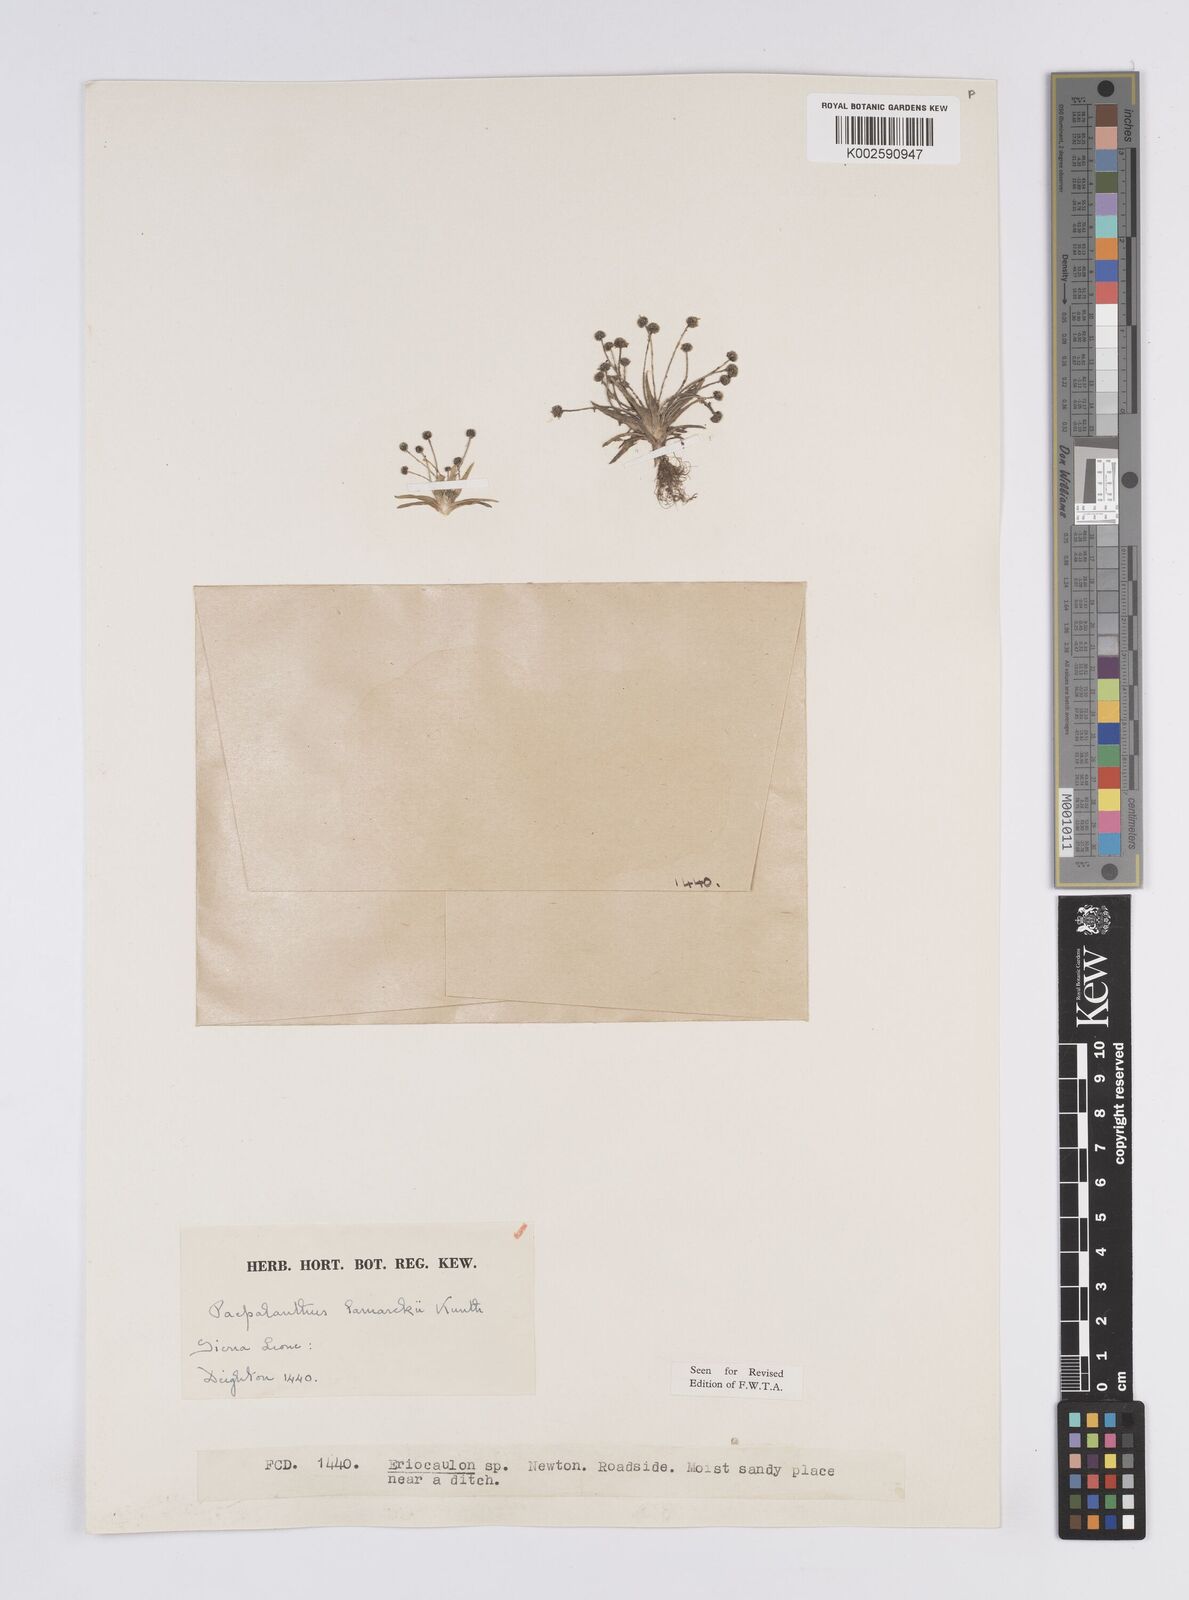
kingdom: Plantae
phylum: Tracheophyta
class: Liliopsida
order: Poales
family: Eriocaulaceae
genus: Paepalanthus
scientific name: Paepalanthus lamarckii
